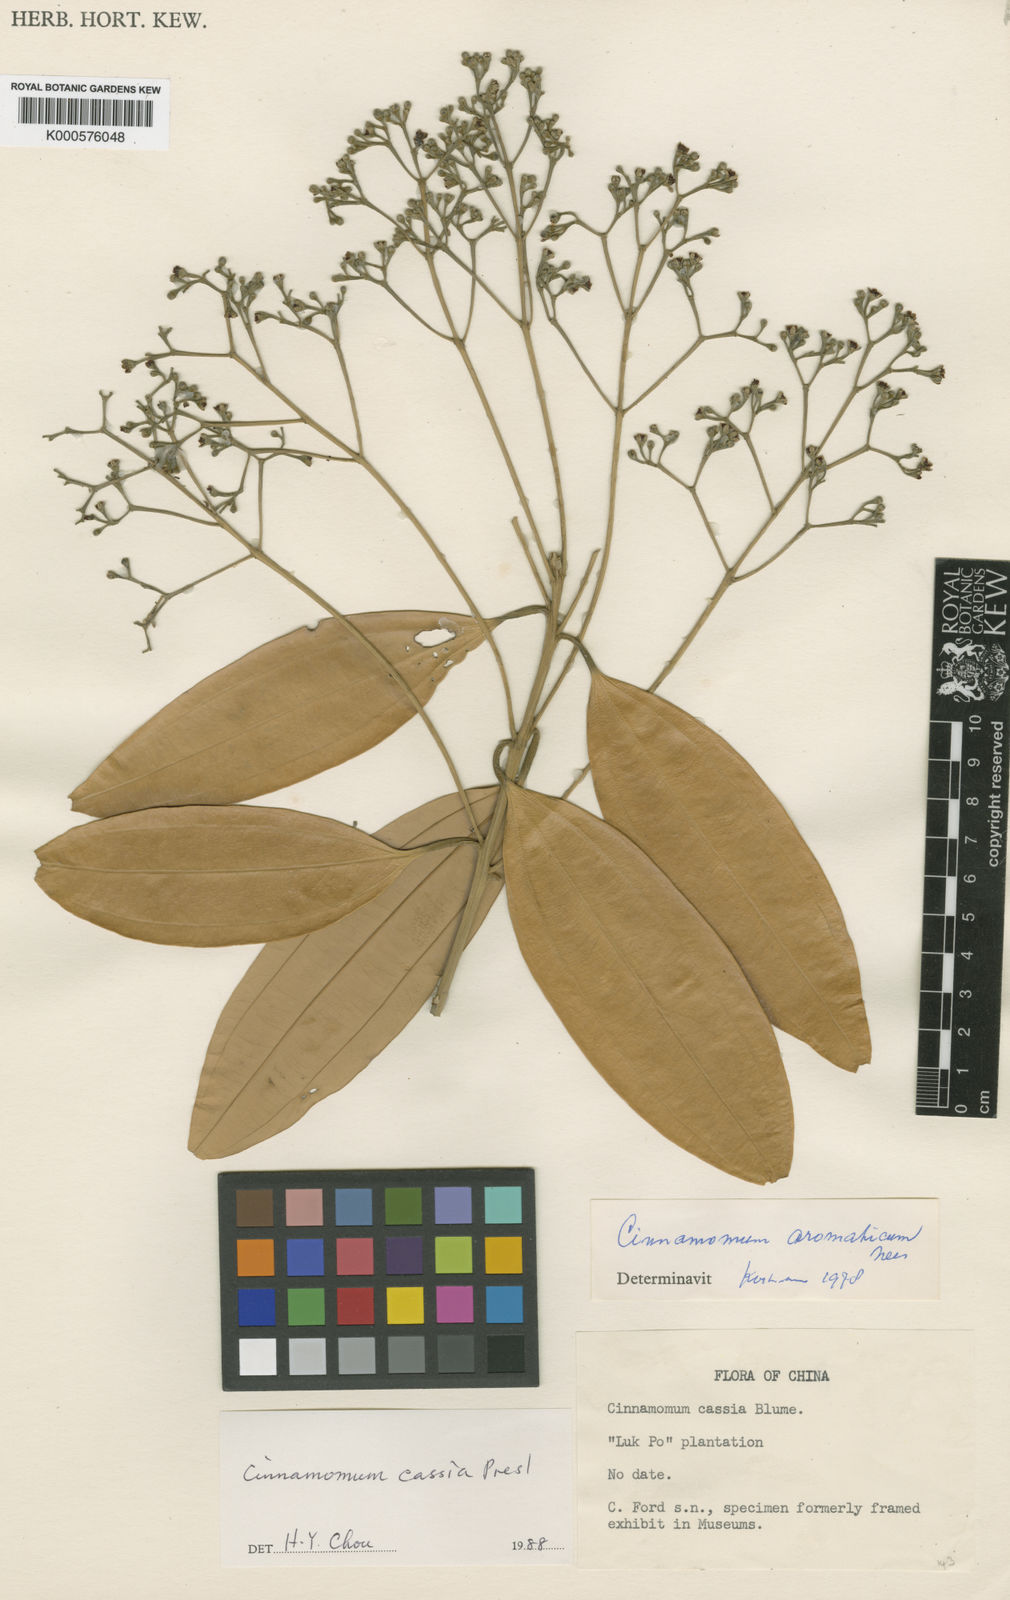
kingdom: Plantae
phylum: Tracheophyta
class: Magnoliopsida
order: Laurales
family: Lauraceae
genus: Neolitsea
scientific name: Neolitsea cassia
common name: Laurel
